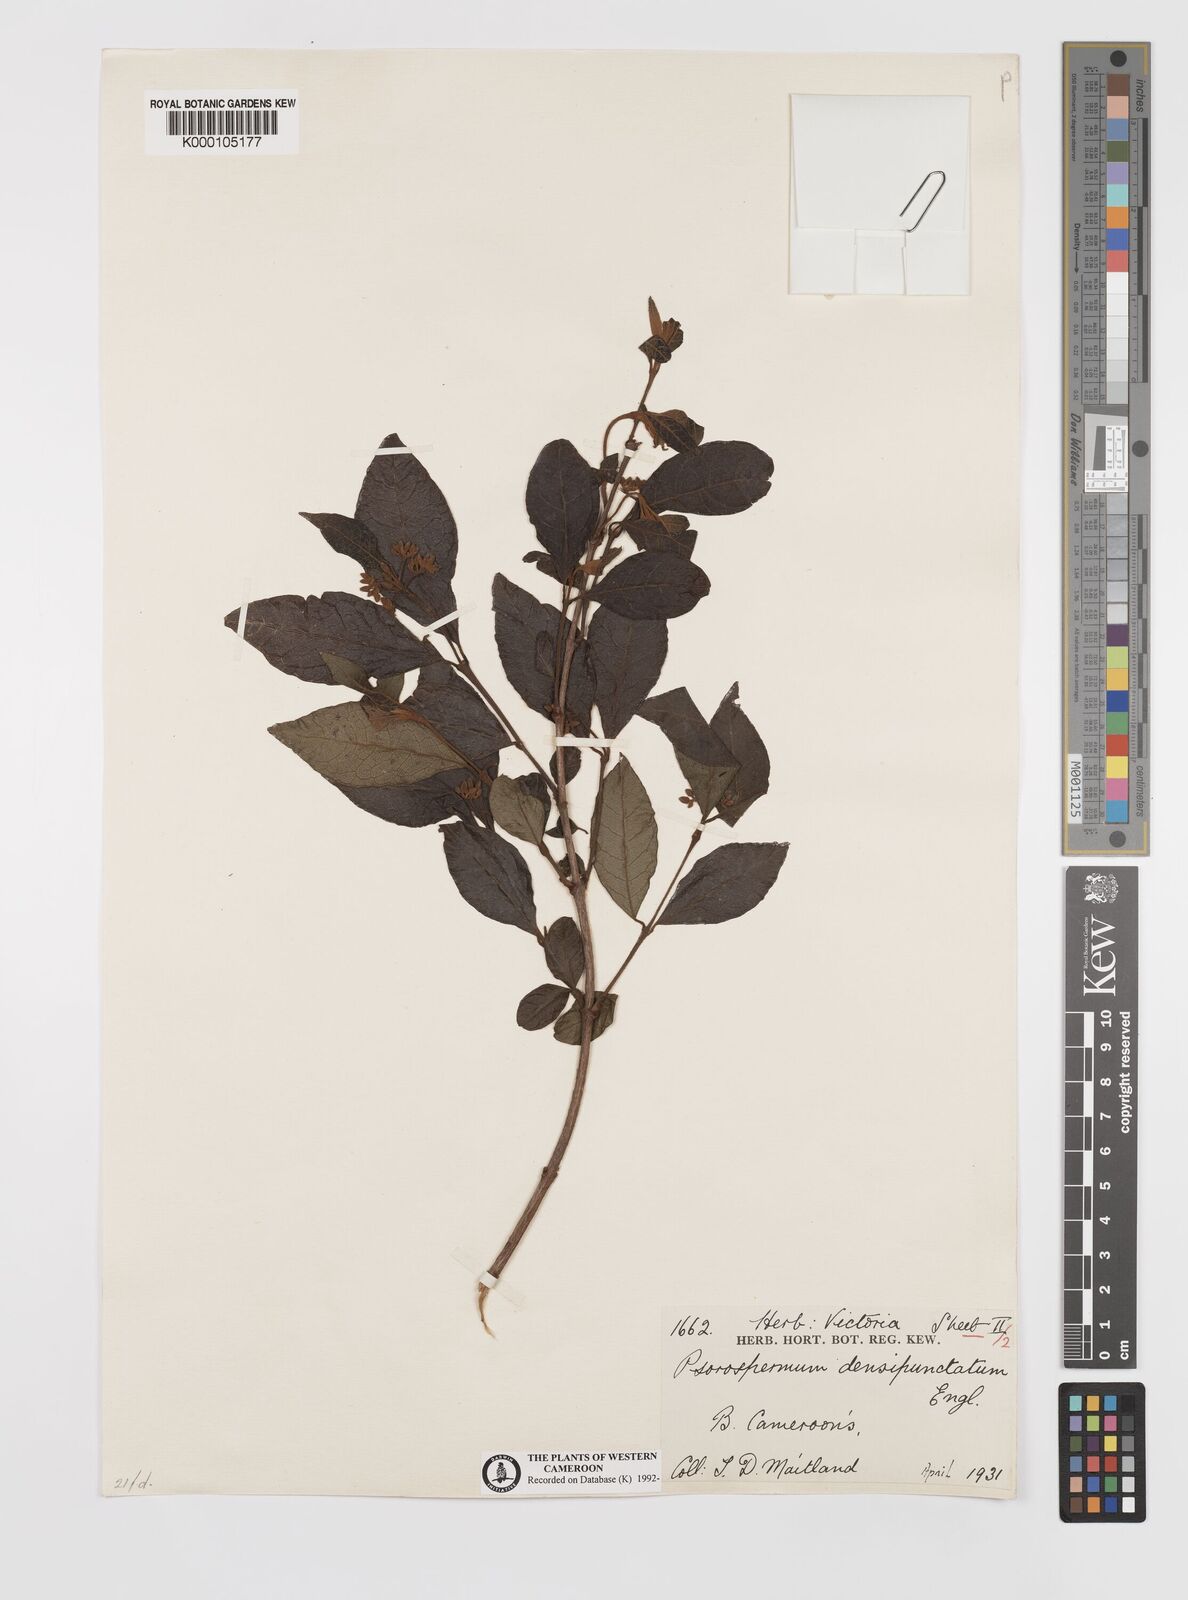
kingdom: Plantae
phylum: Tracheophyta
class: Magnoliopsida
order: Malpighiales
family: Hypericaceae
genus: Psorospermum
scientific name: Psorospermum densipunctatum
